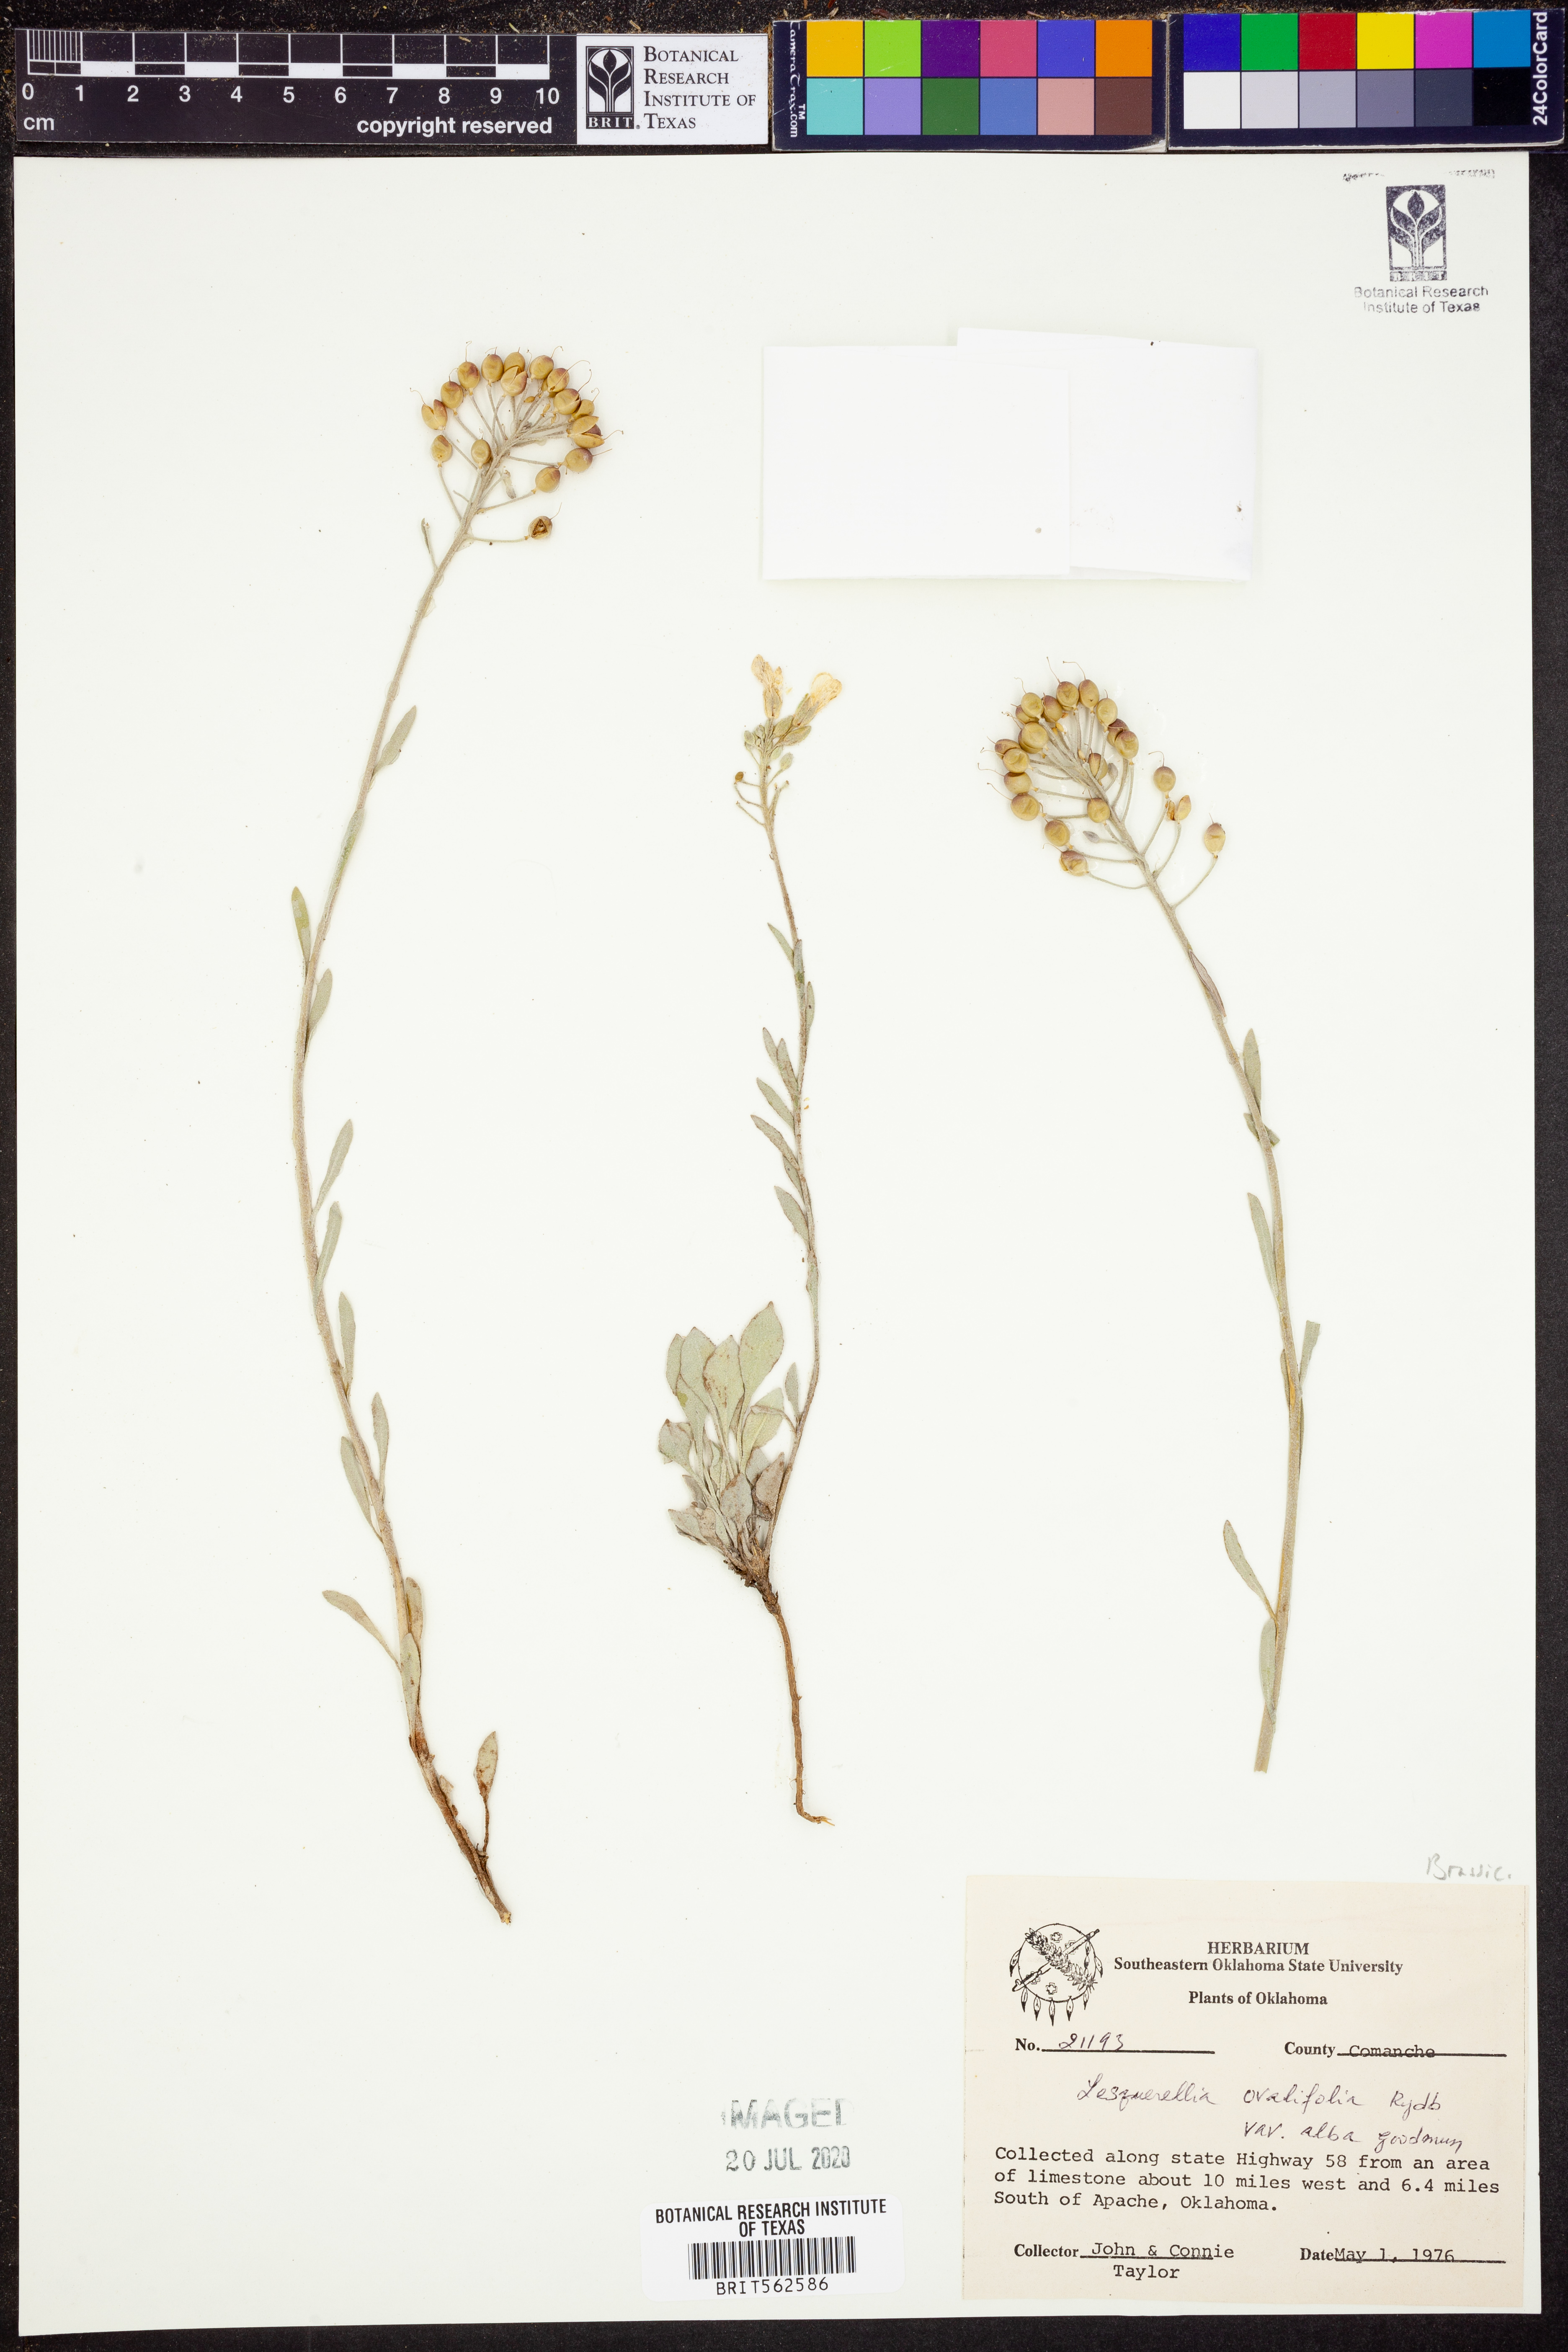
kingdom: Plantae
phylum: Tracheophyta
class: Magnoliopsida
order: Brassicales
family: Brassicaceae
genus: Physaria
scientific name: Physaria ovalifolia
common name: Round-leaf bladderpod
